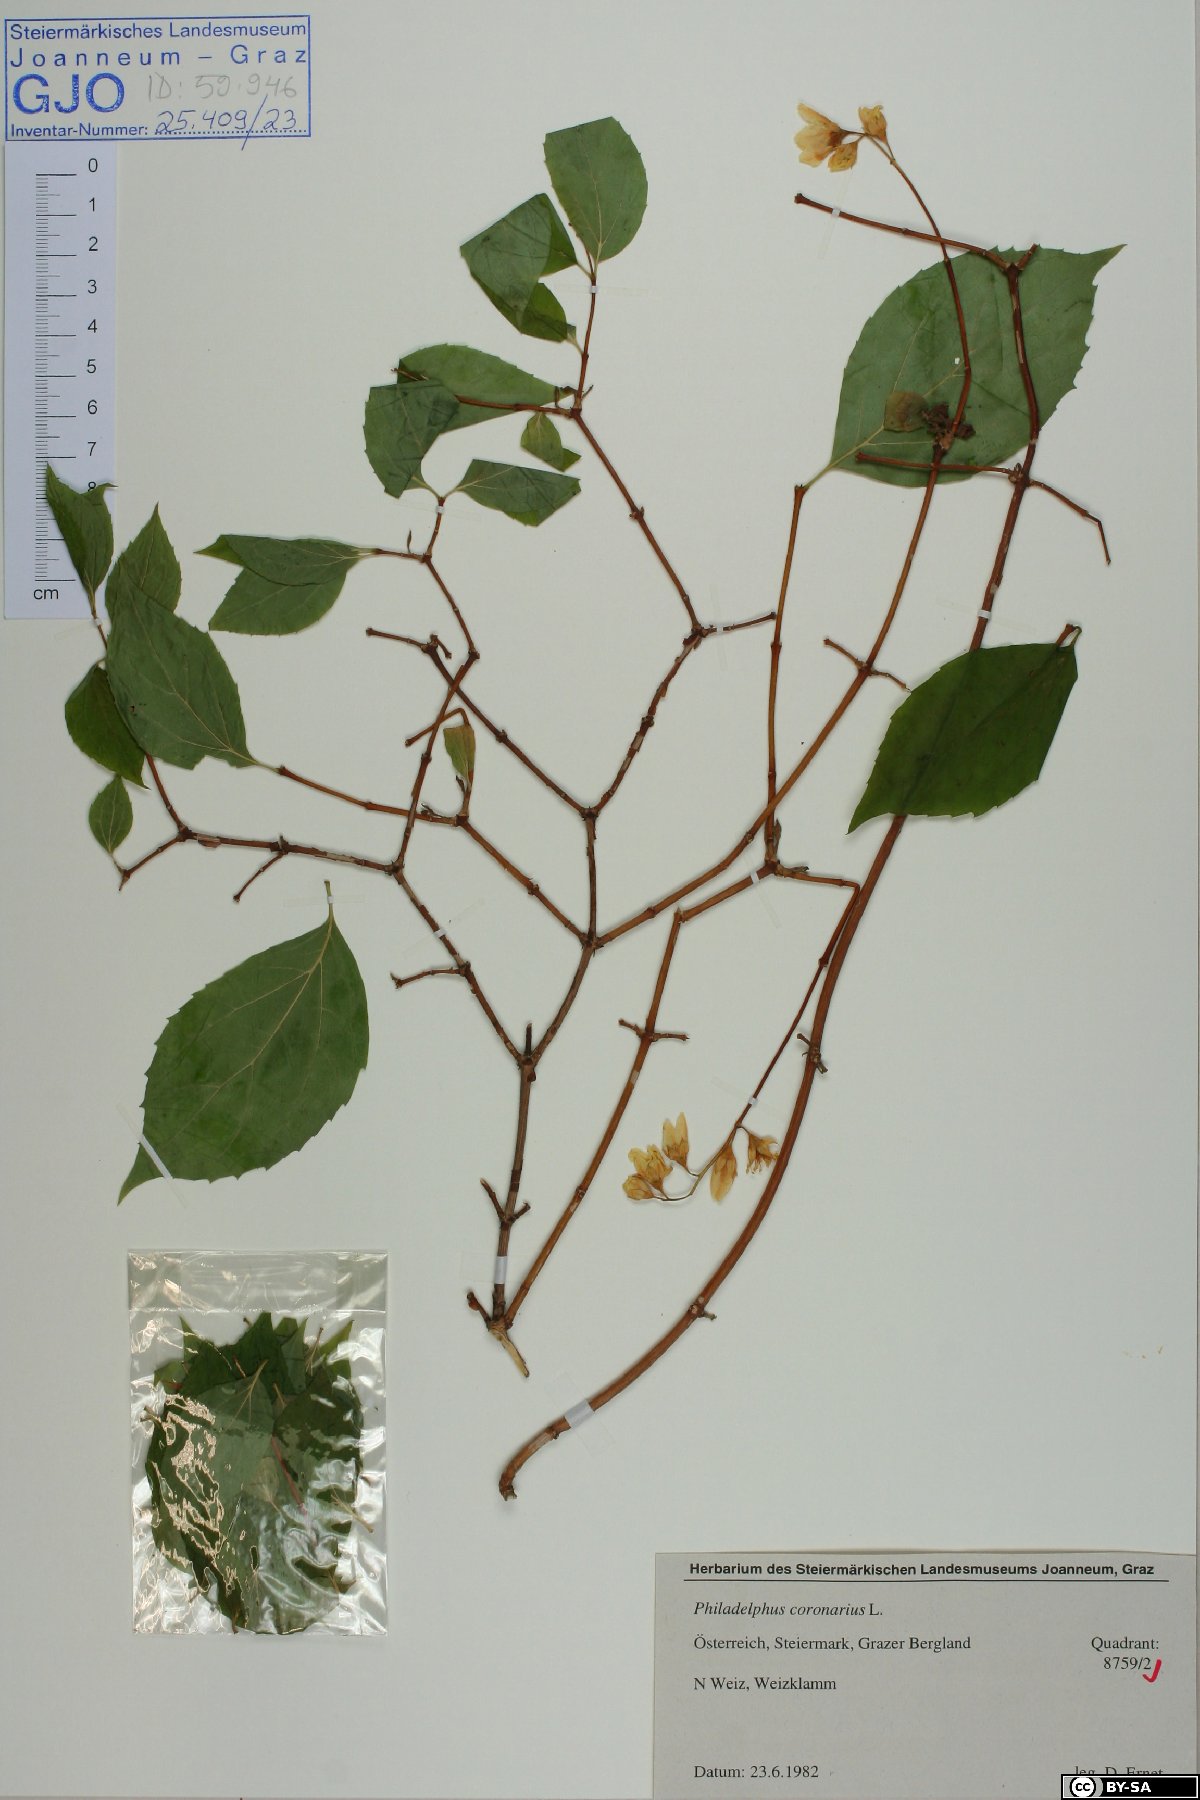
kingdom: Plantae
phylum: Tracheophyta
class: Magnoliopsida
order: Cornales
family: Hydrangeaceae
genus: Philadelphus
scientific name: Philadelphus coronarius
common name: Mock orange
